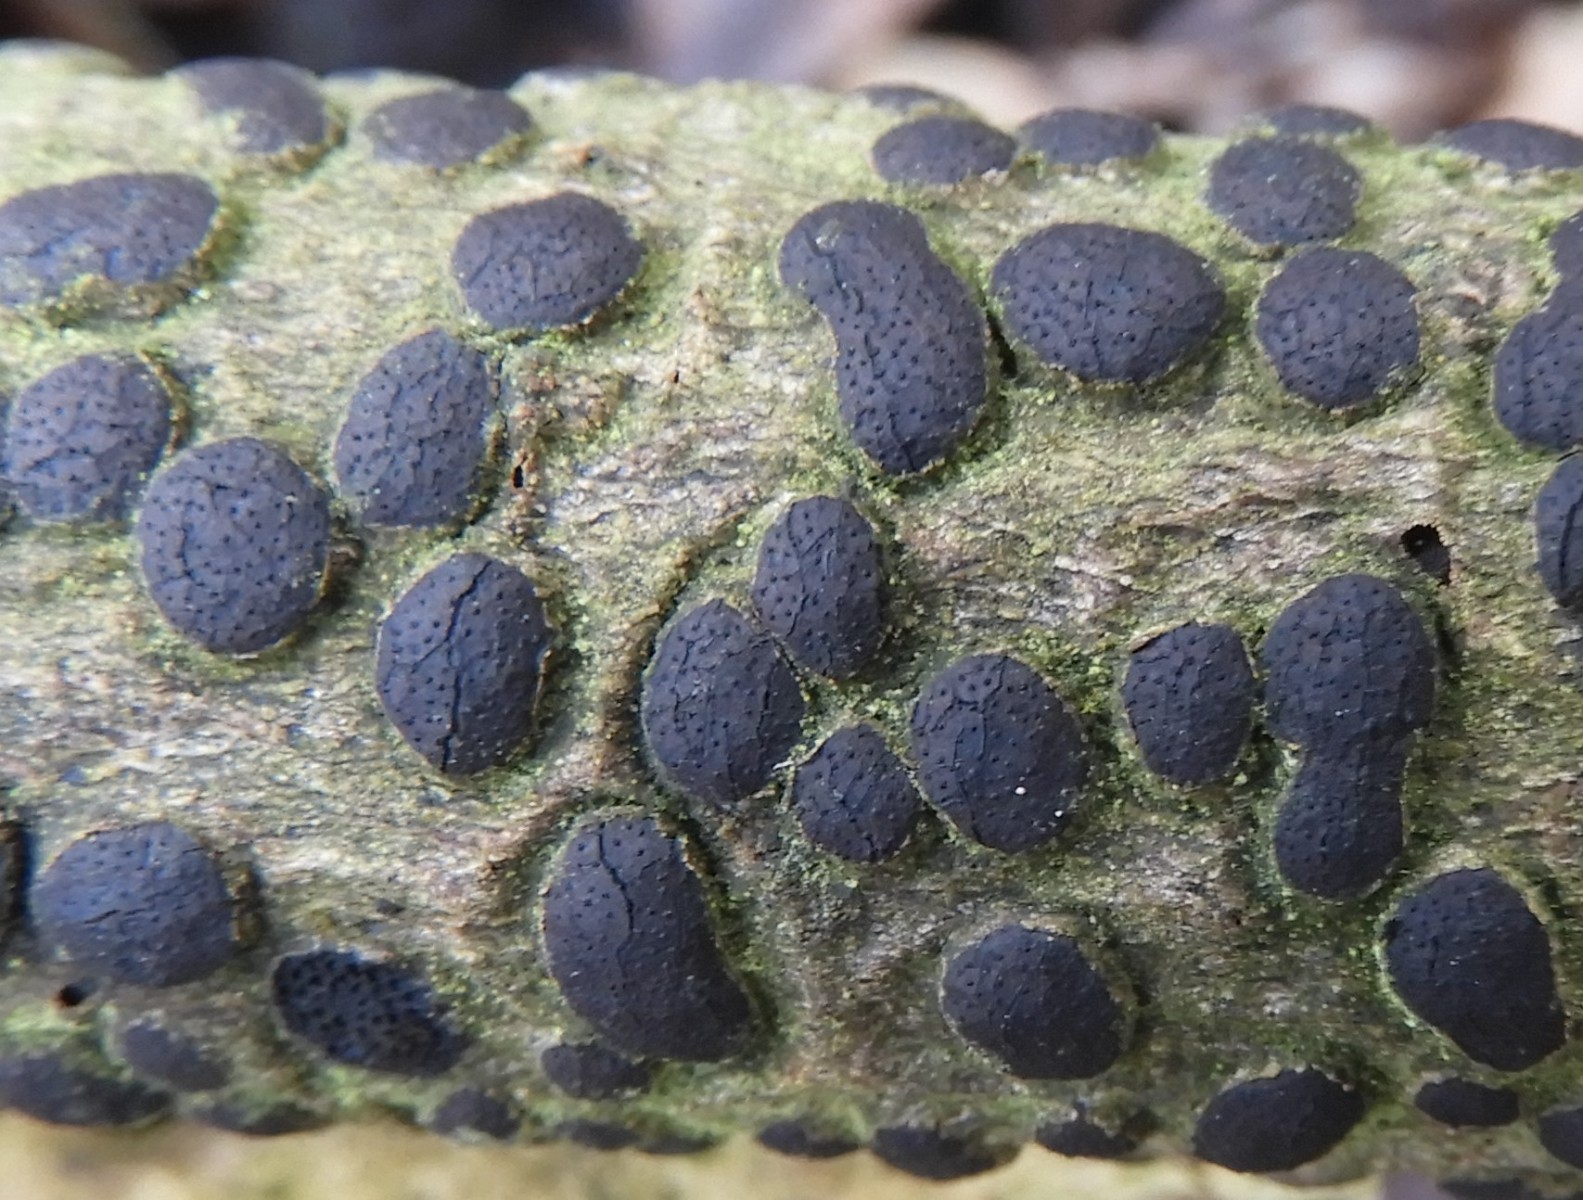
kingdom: Fungi
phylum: Ascomycota
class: Sordariomycetes
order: Xylariales
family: Diatrypaceae
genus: Diatrype
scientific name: Diatrype bullata
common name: pile-kulskorpe
